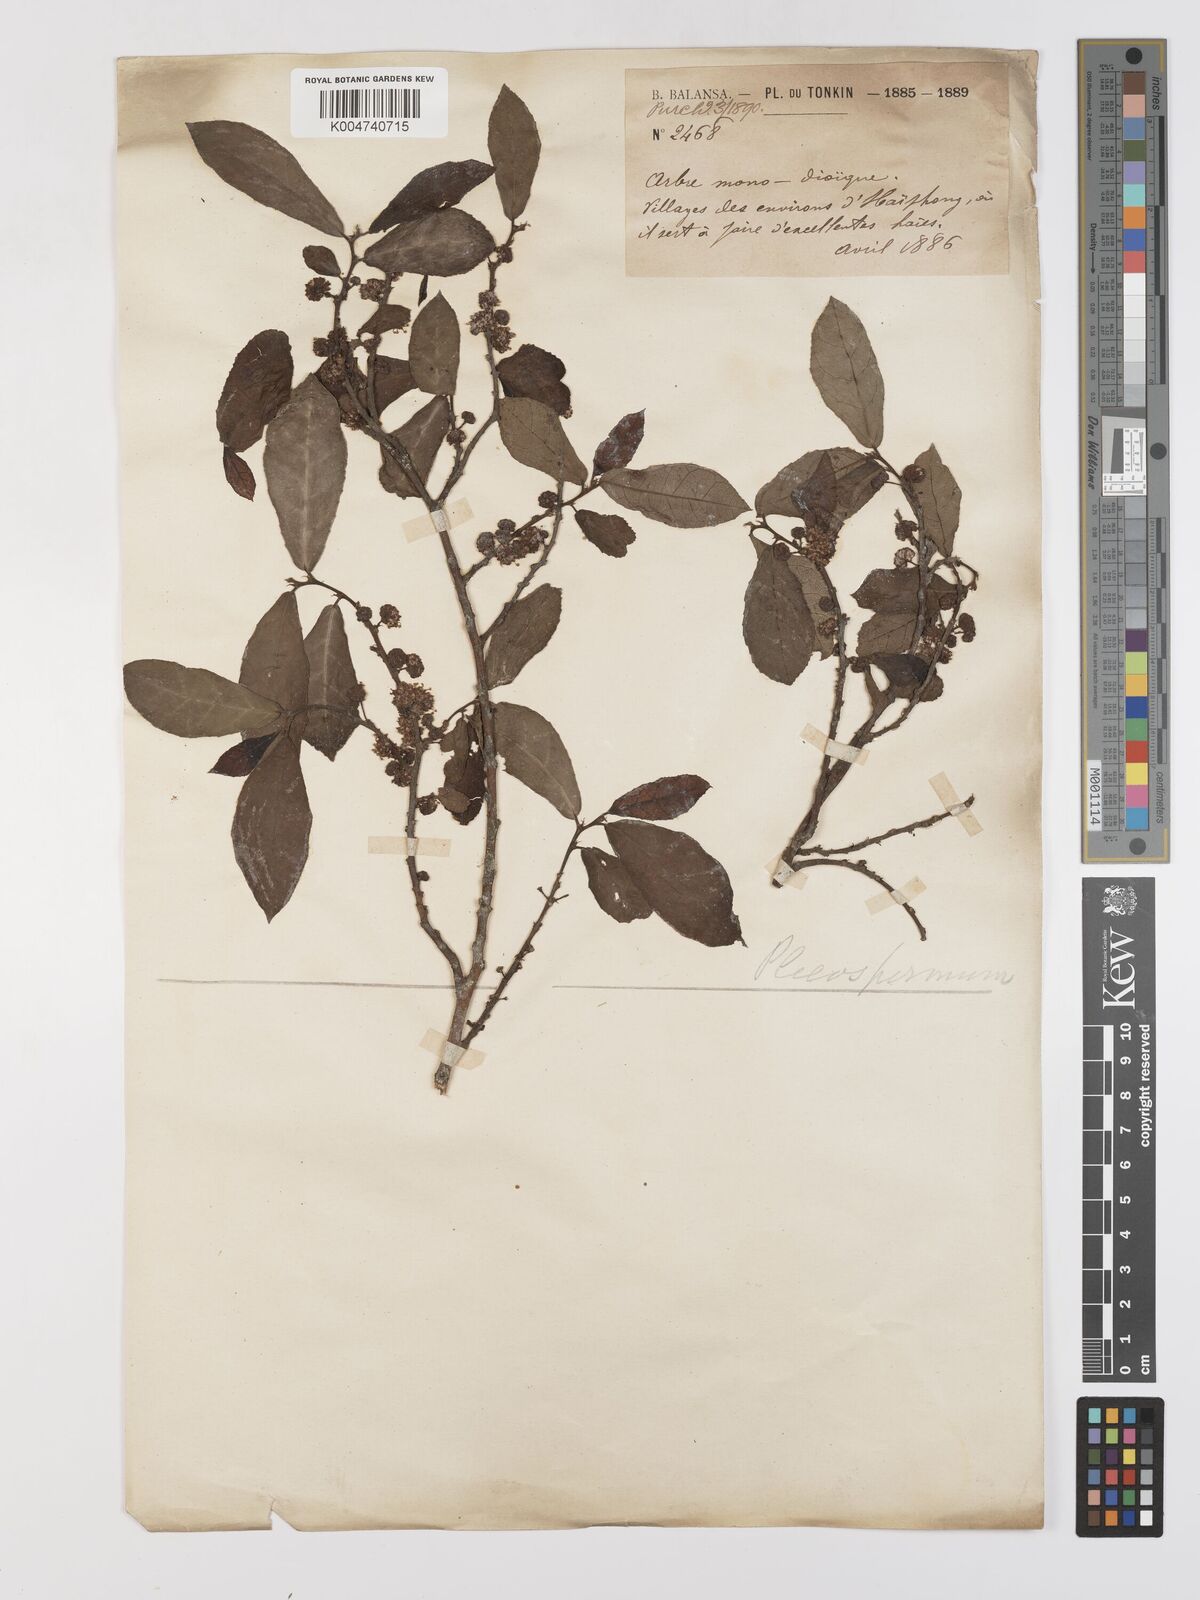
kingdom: Plantae
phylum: Tracheophyta
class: Magnoliopsida
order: Rosales
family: Moraceae
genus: Streblus
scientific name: Streblus asper
